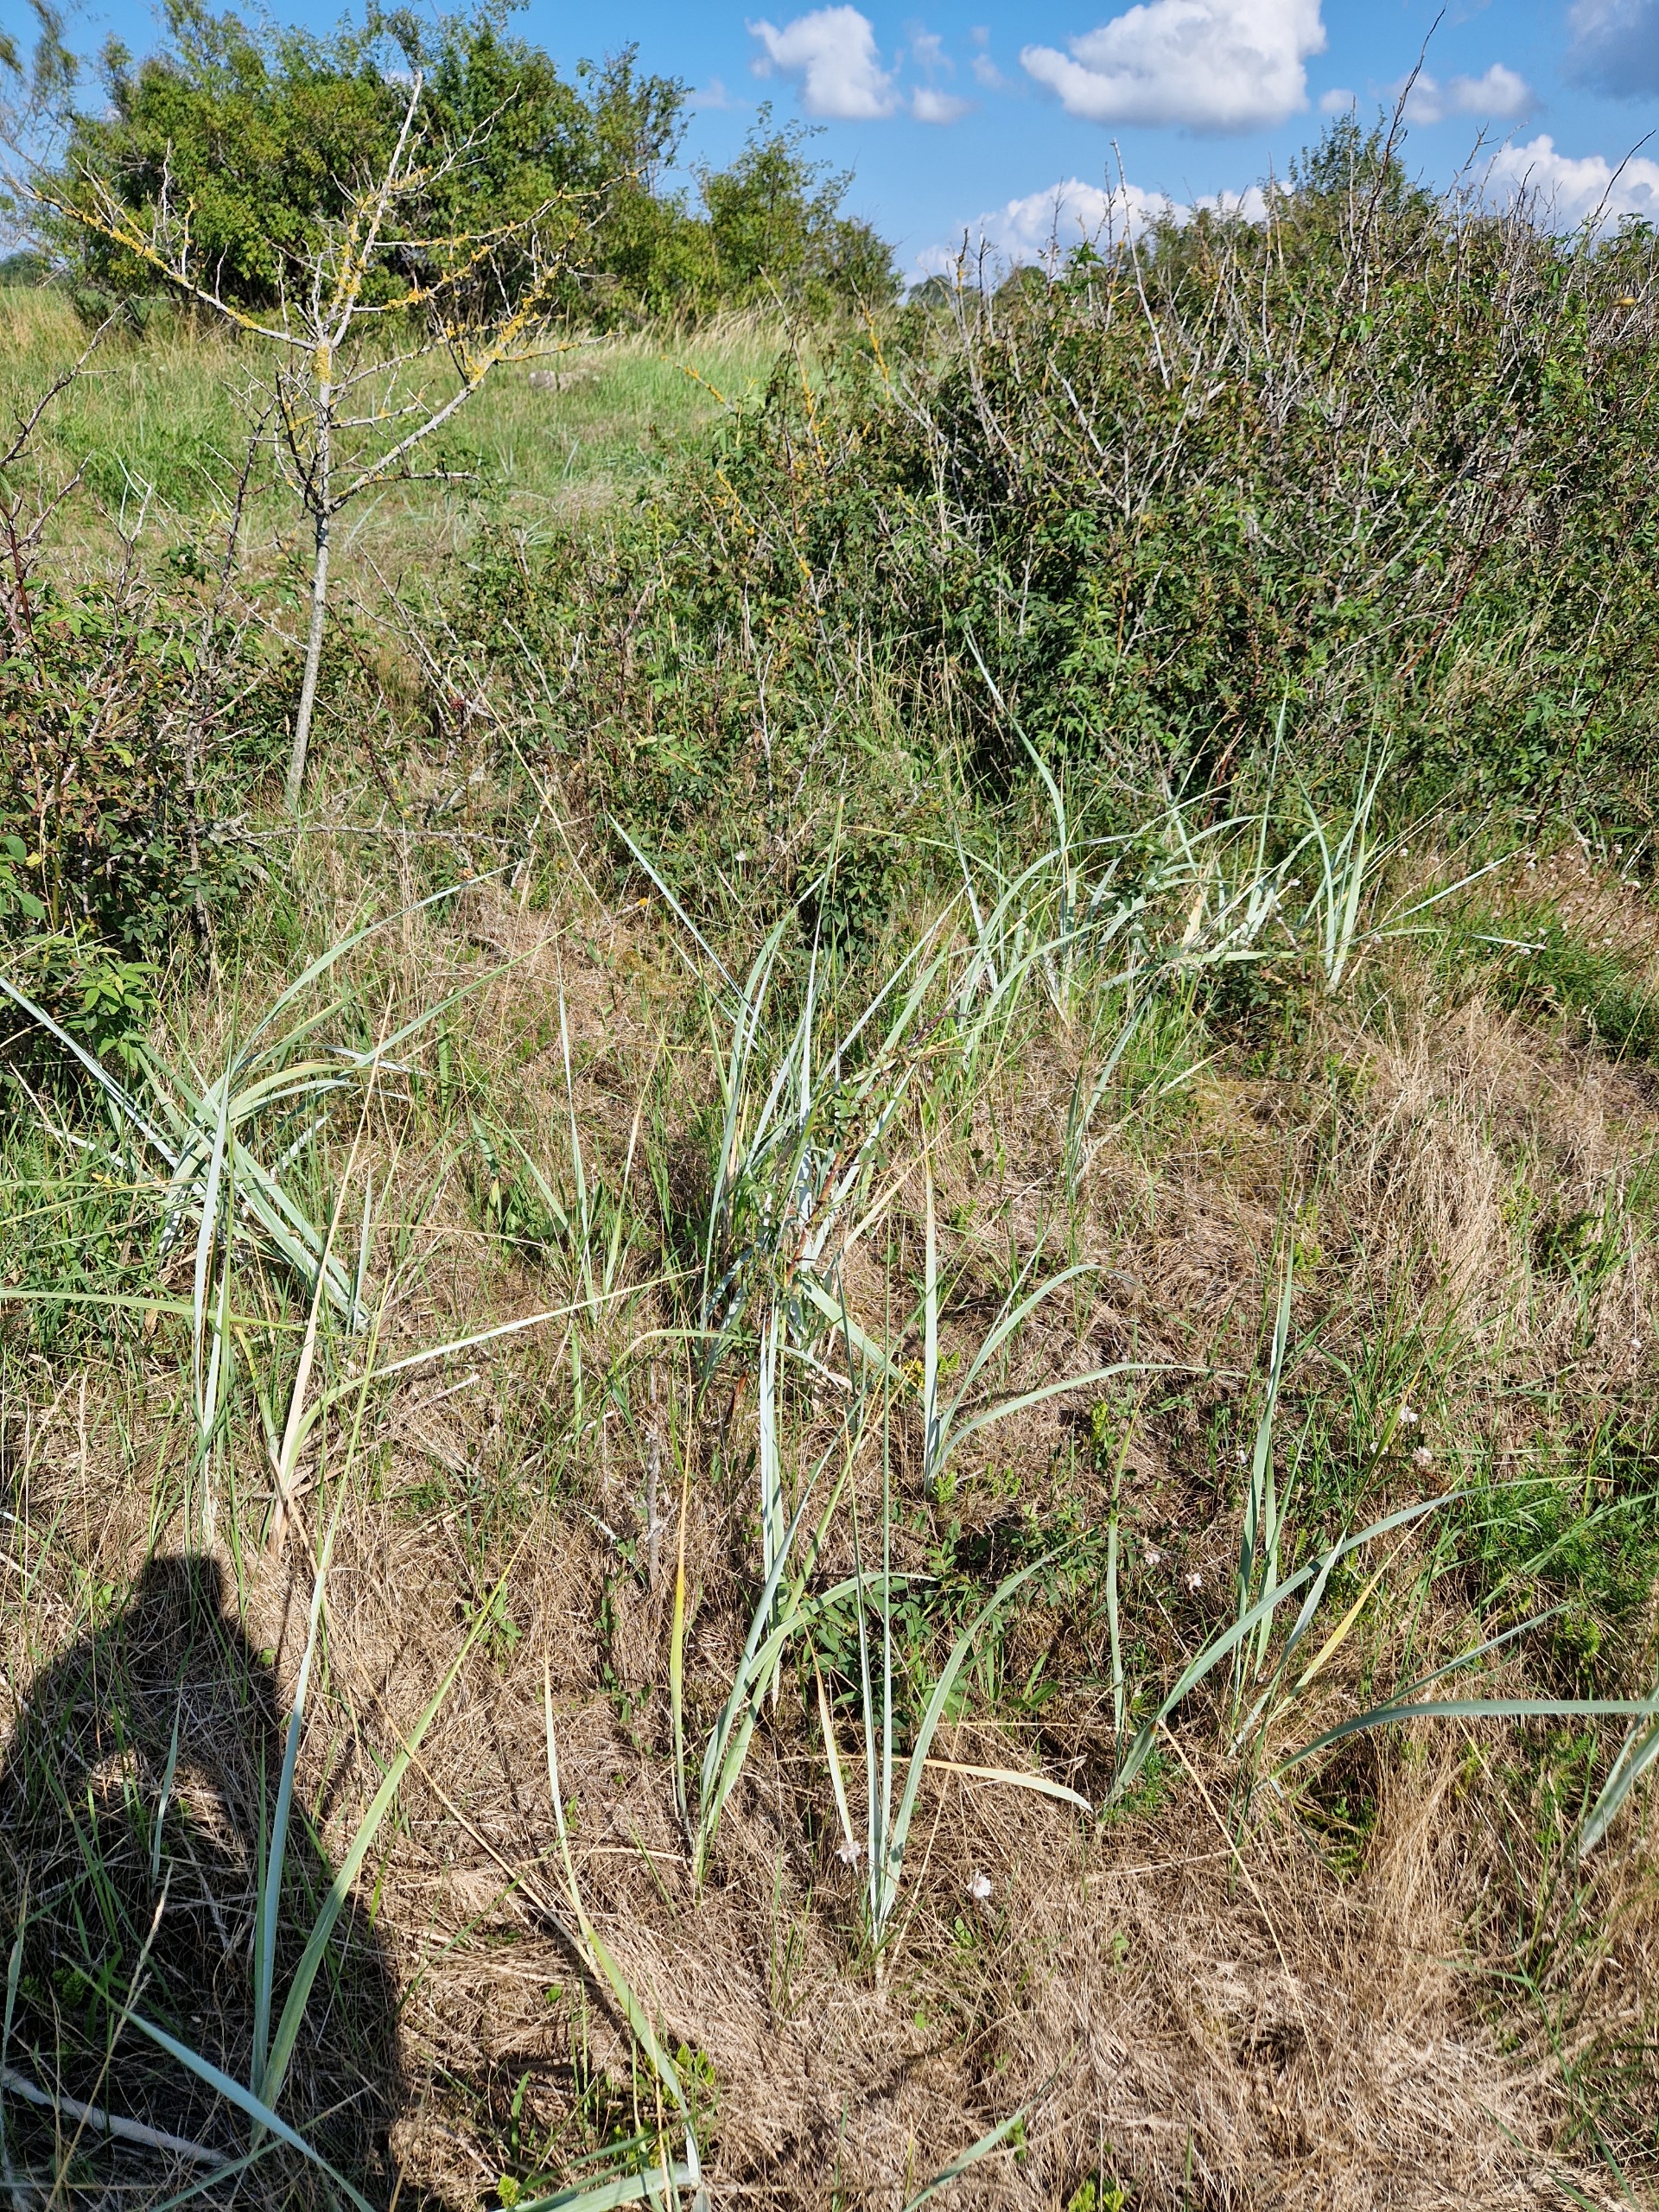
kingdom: Plantae
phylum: Tracheophyta
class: Liliopsida
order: Poales
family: Poaceae
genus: Leymus
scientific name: Leymus arenarius
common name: Marehalm
